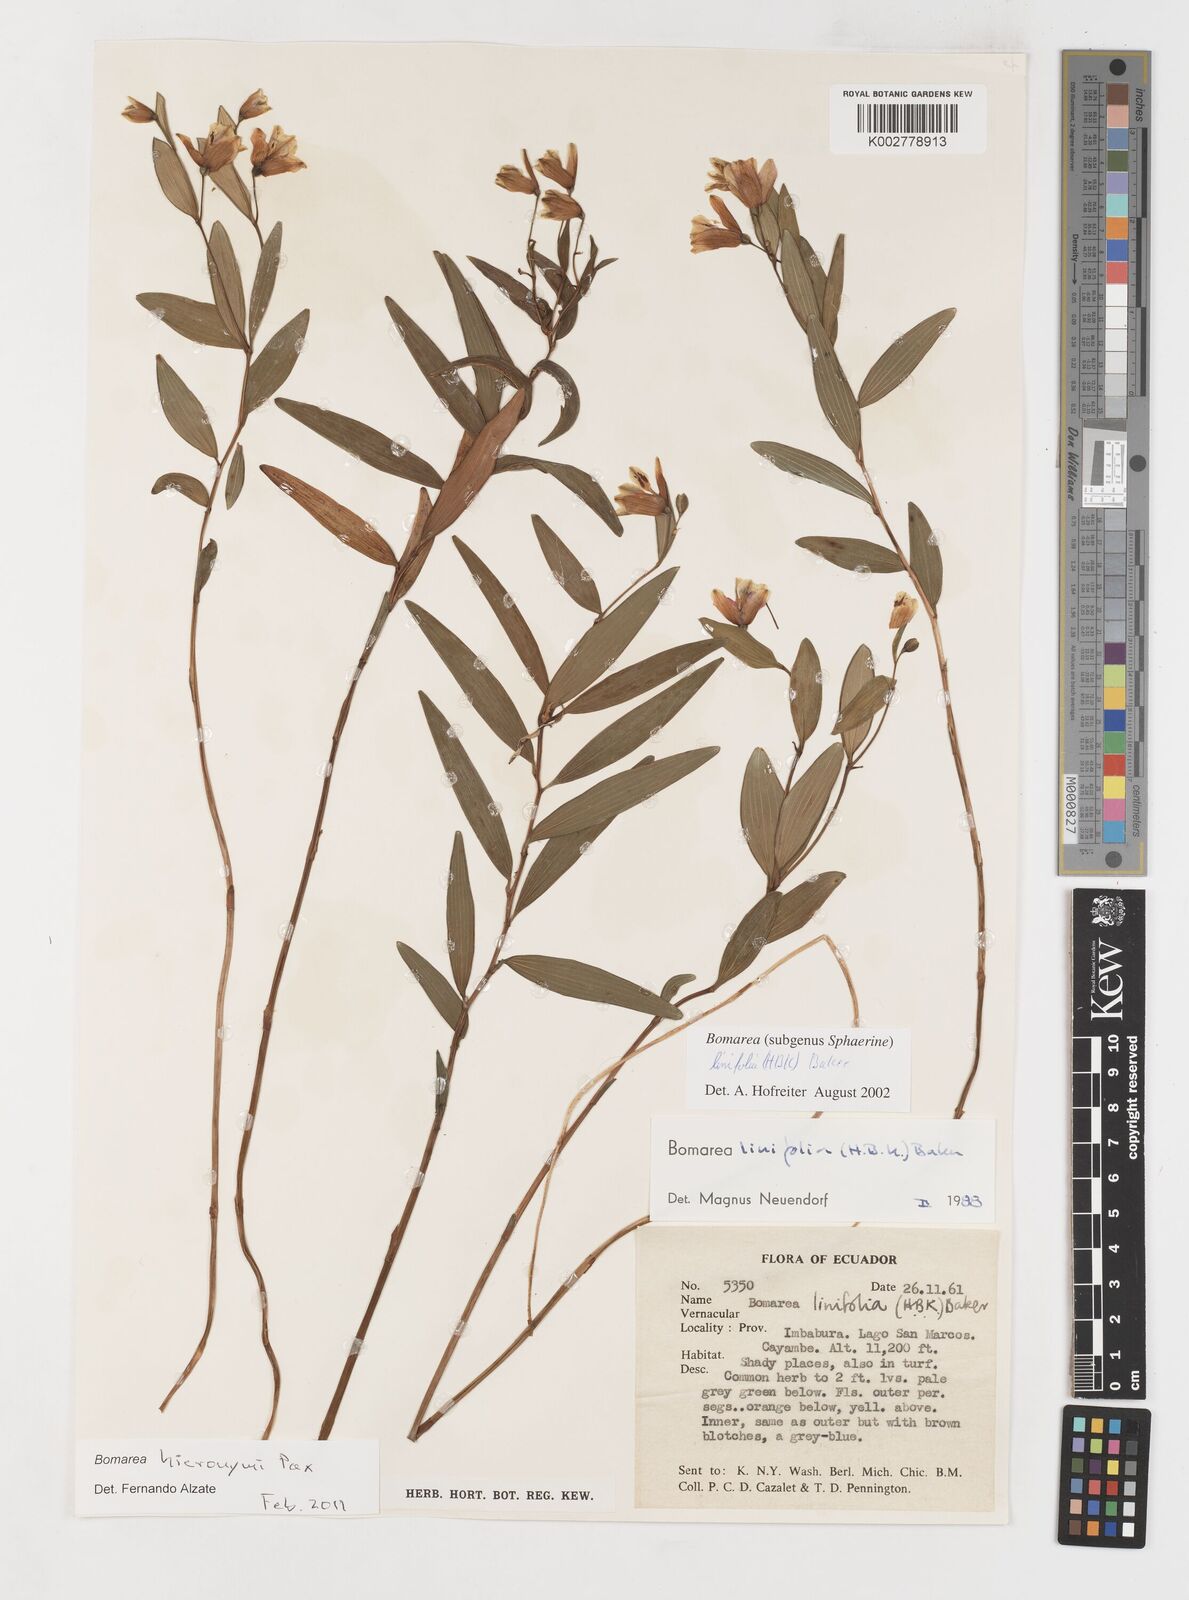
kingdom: Plantae
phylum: Tracheophyta
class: Liliopsida
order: Liliales
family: Alstroemeriaceae
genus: Bomarea
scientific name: Bomarea hieronymi
